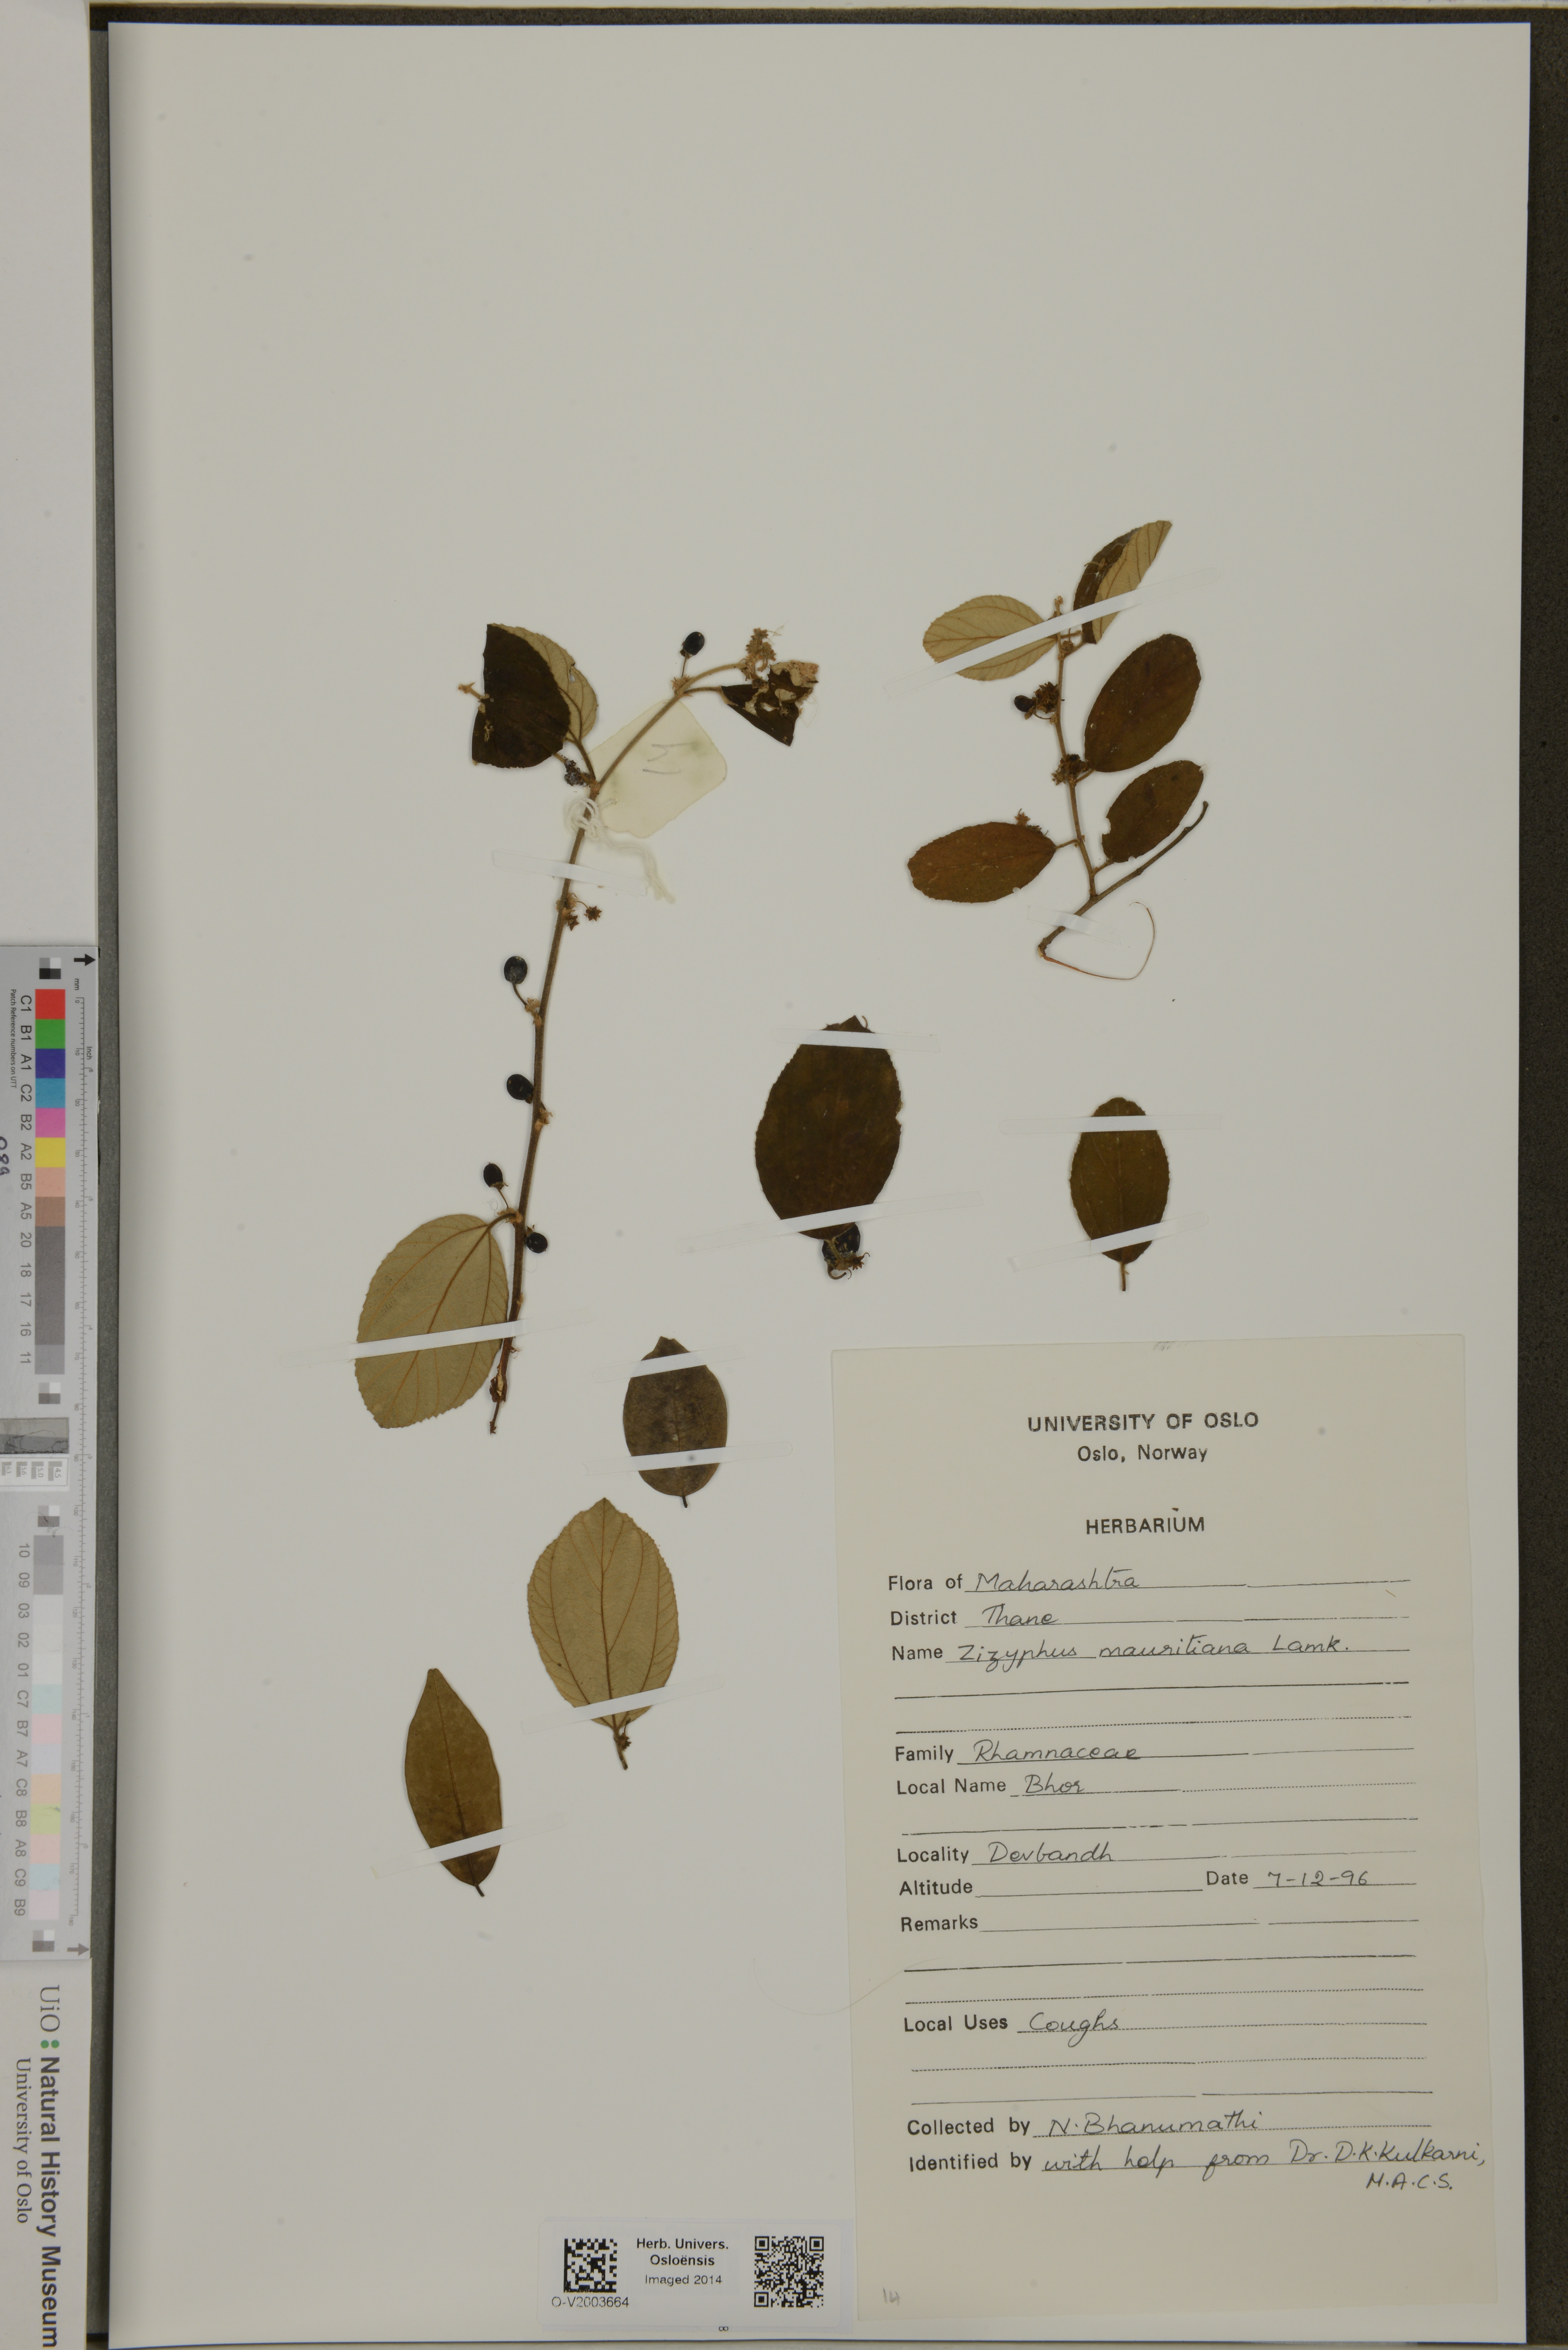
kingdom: Plantae
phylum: Tracheophyta
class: Magnoliopsida
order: Rosales
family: Rhamnaceae
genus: Zizyphus
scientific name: Zizyphus
